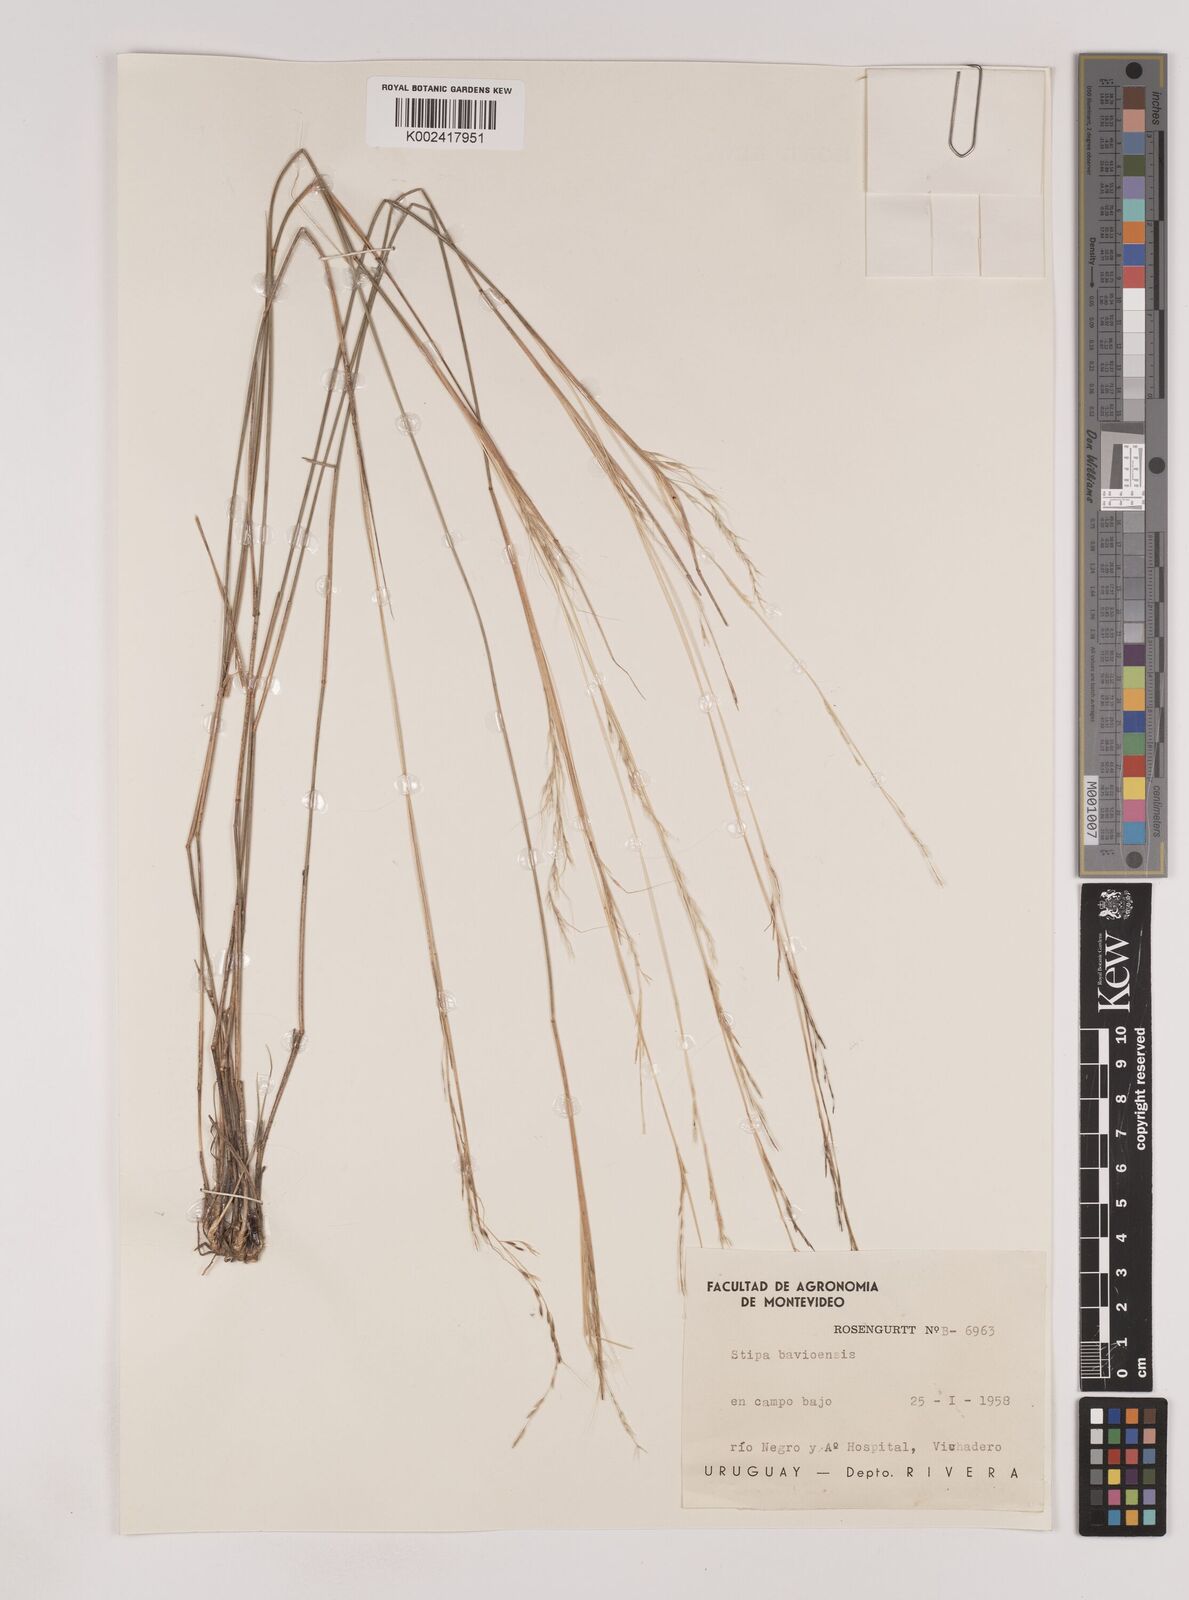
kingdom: Plantae
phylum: Tracheophyta
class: Liliopsida
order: Poales
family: Poaceae
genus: Nassella
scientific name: Nassella philippii
